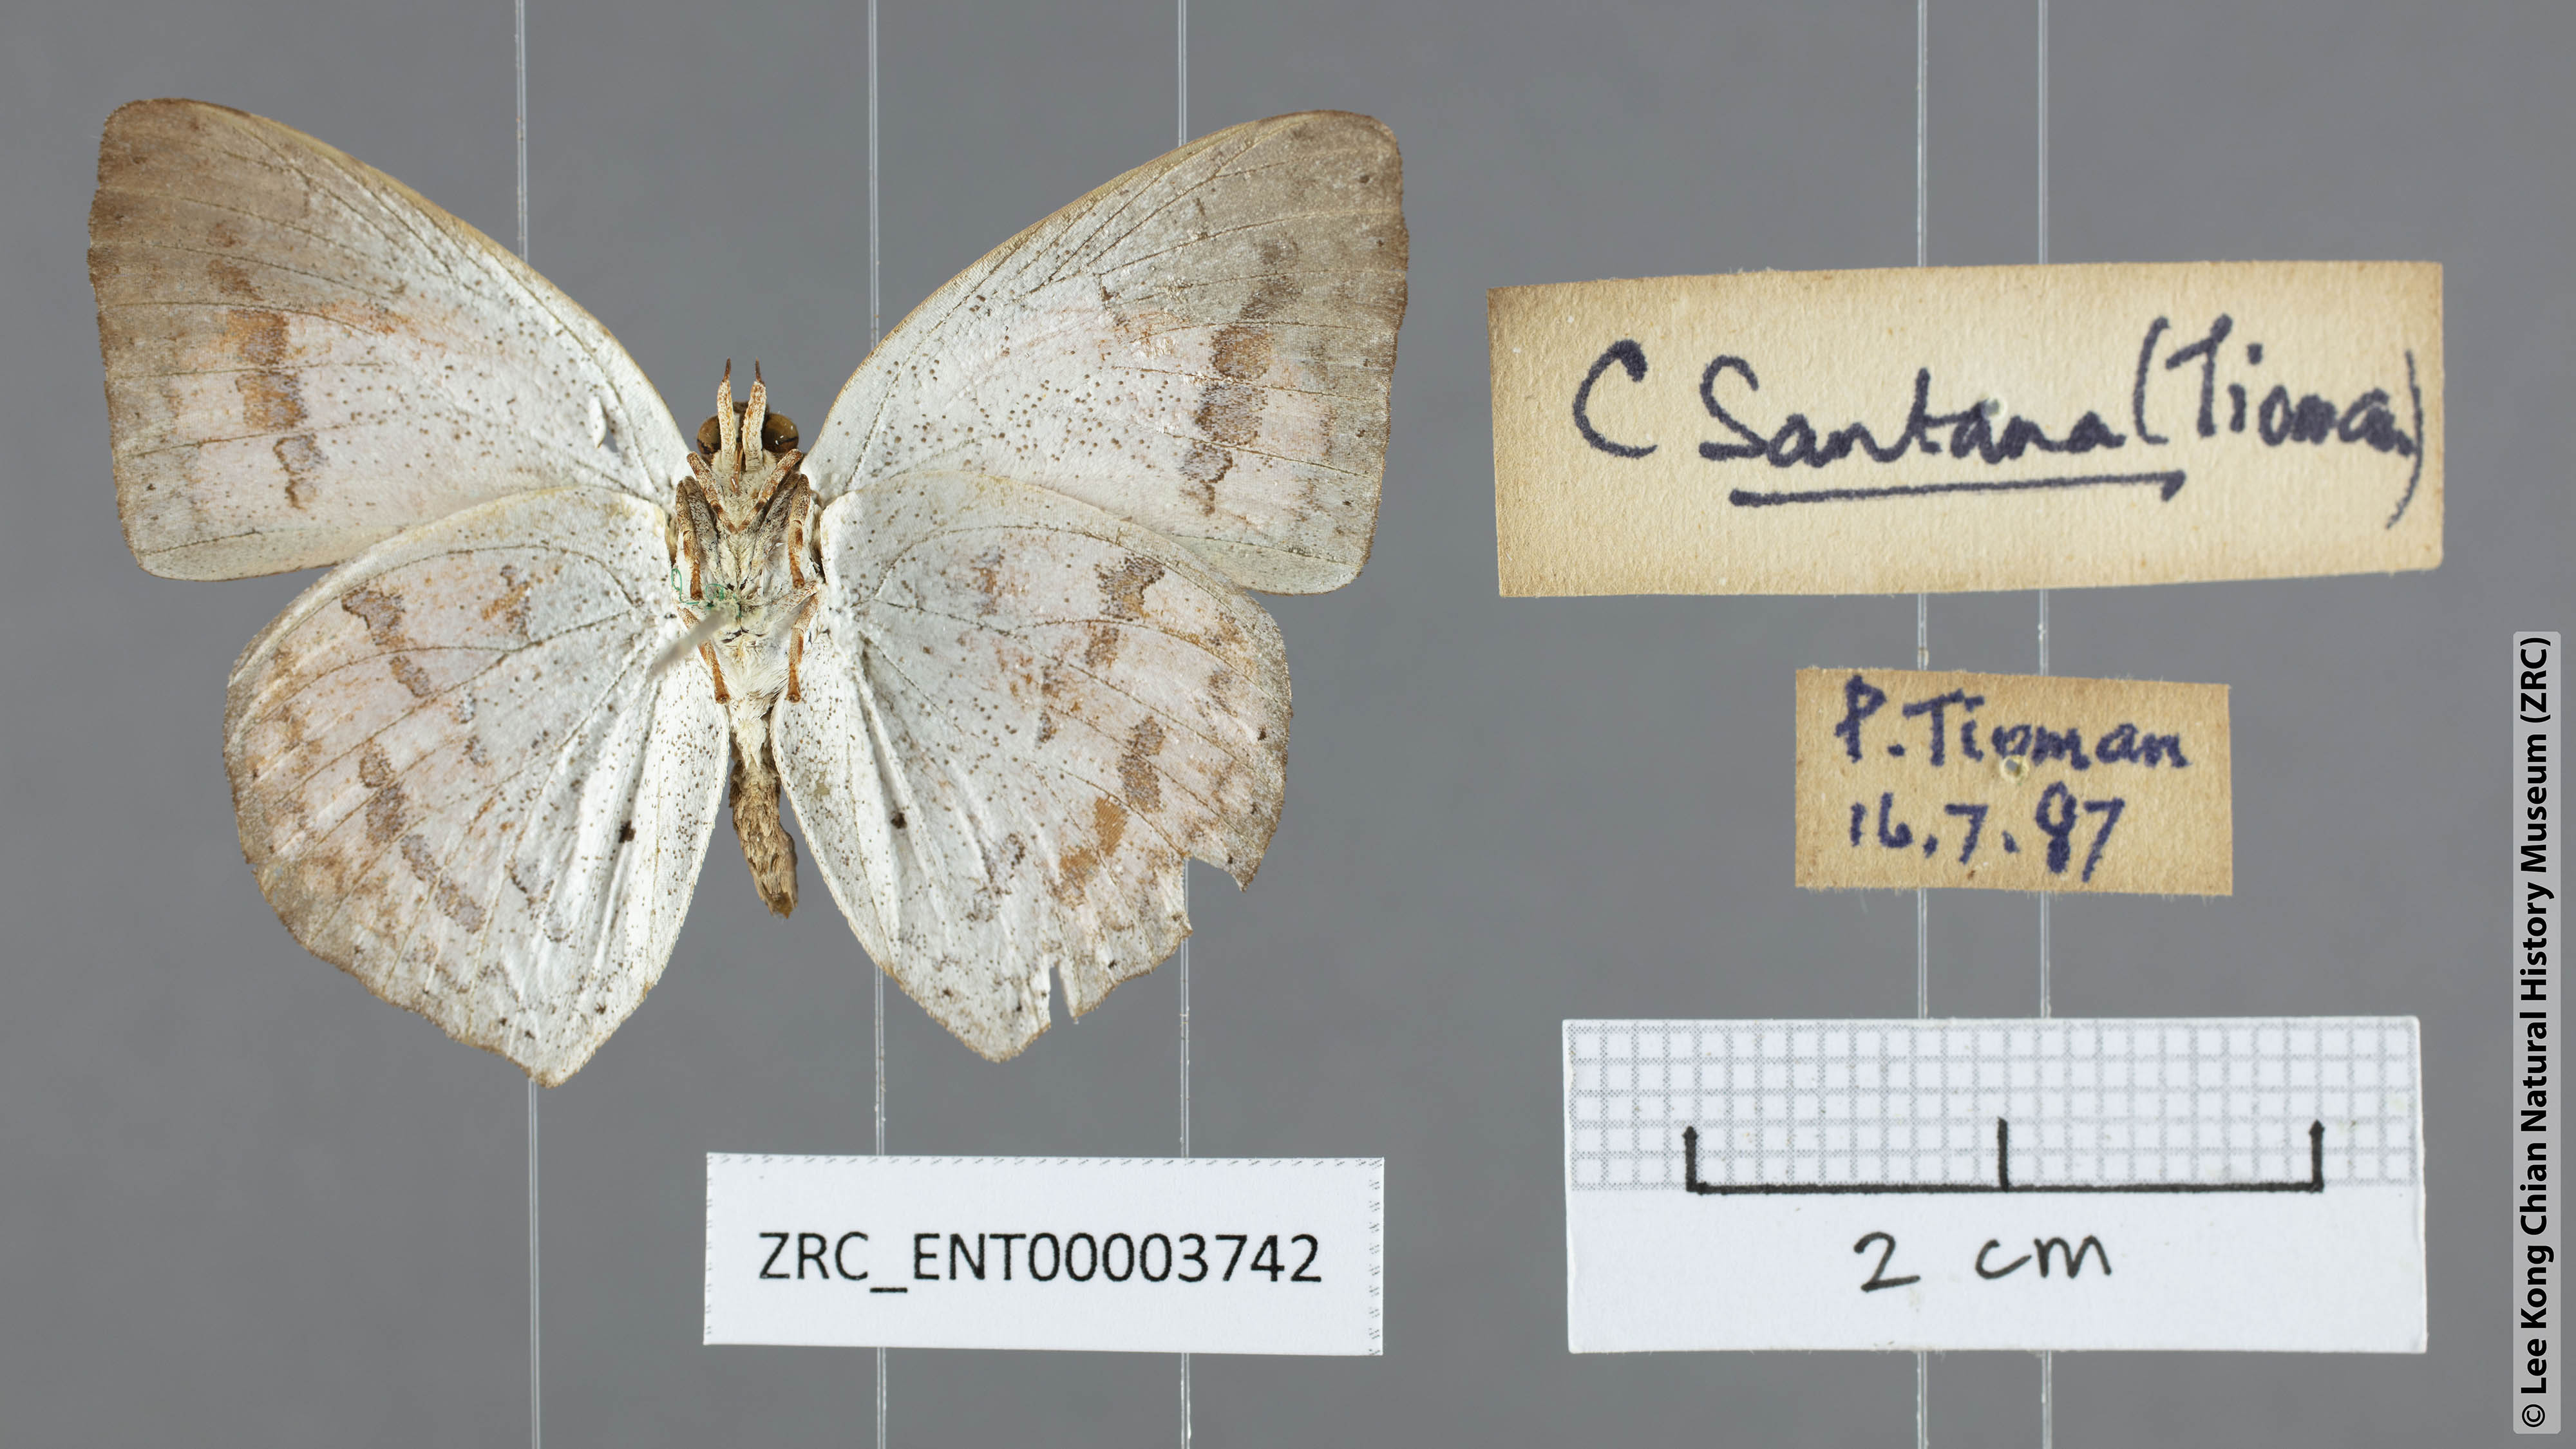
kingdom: Animalia
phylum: Arthropoda
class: Insecta
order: Lepidoptera
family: Lycaenidae
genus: Curetis
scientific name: Curetis santana
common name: Malayan sunbeam
